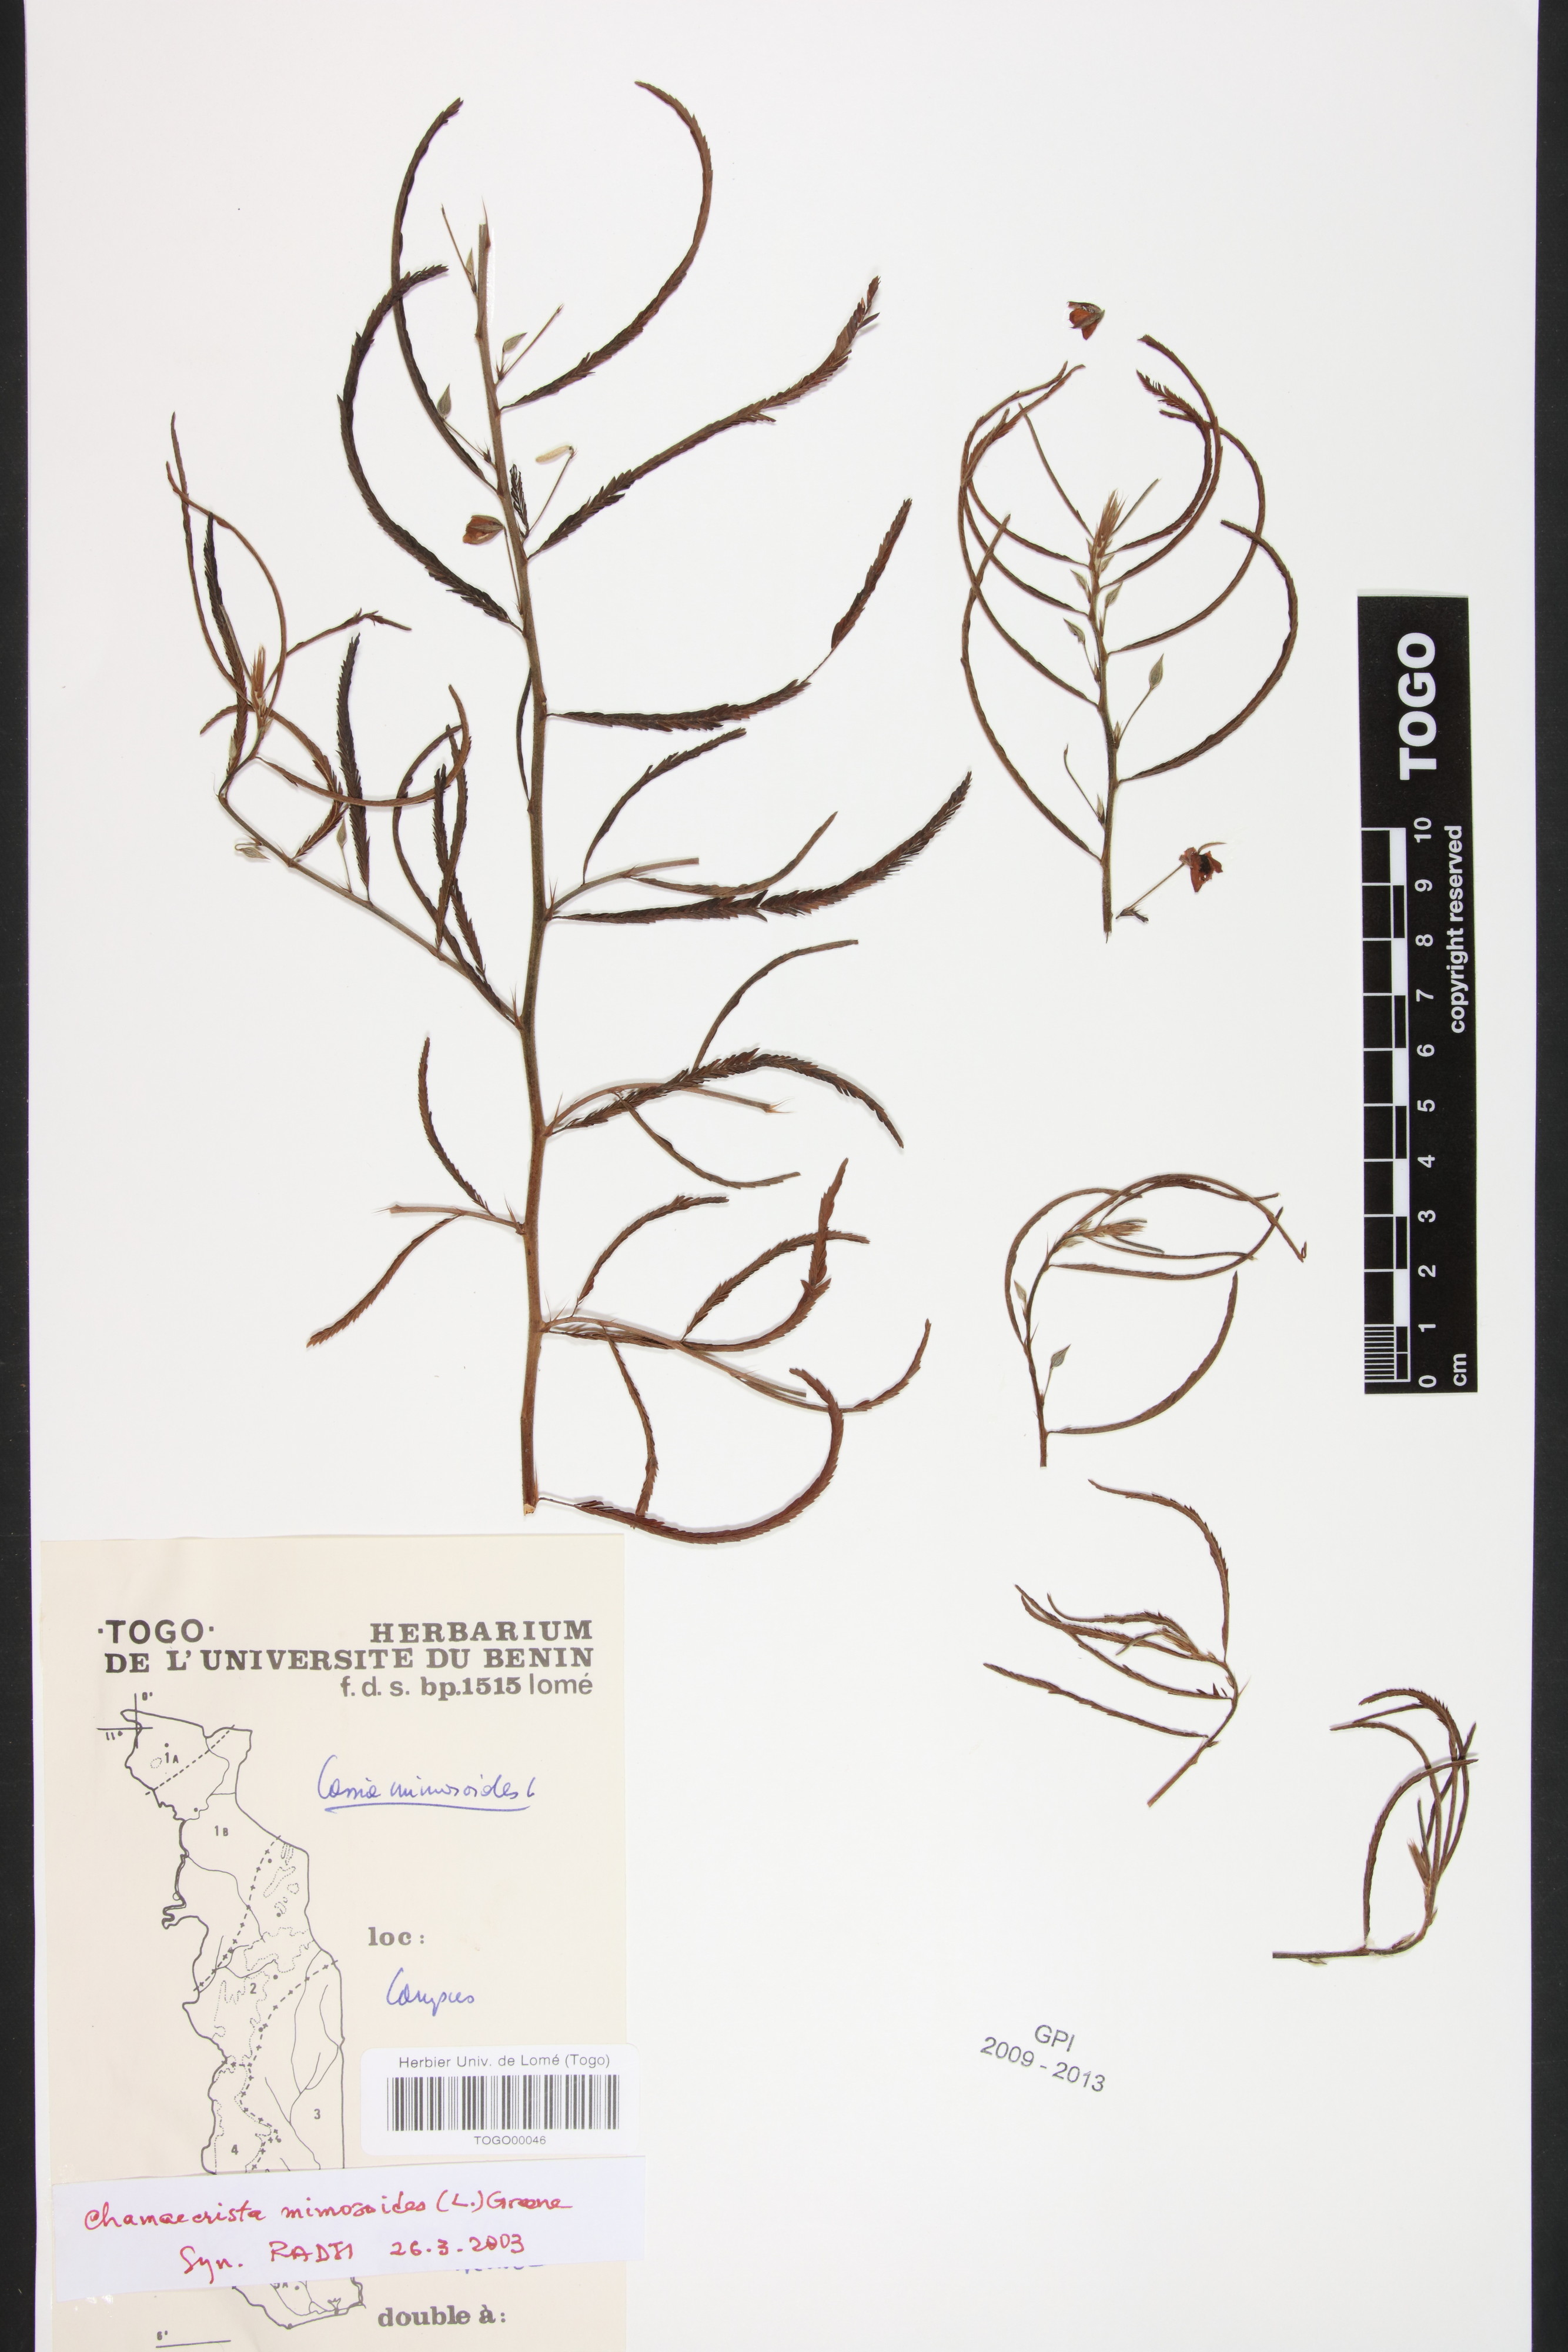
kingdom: Plantae
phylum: Tracheophyta
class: Magnoliopsida
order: Fabales
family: Fabaceae
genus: Chamaecrista
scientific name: Chamaecrista mimosoides
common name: Fish-bone cassia
